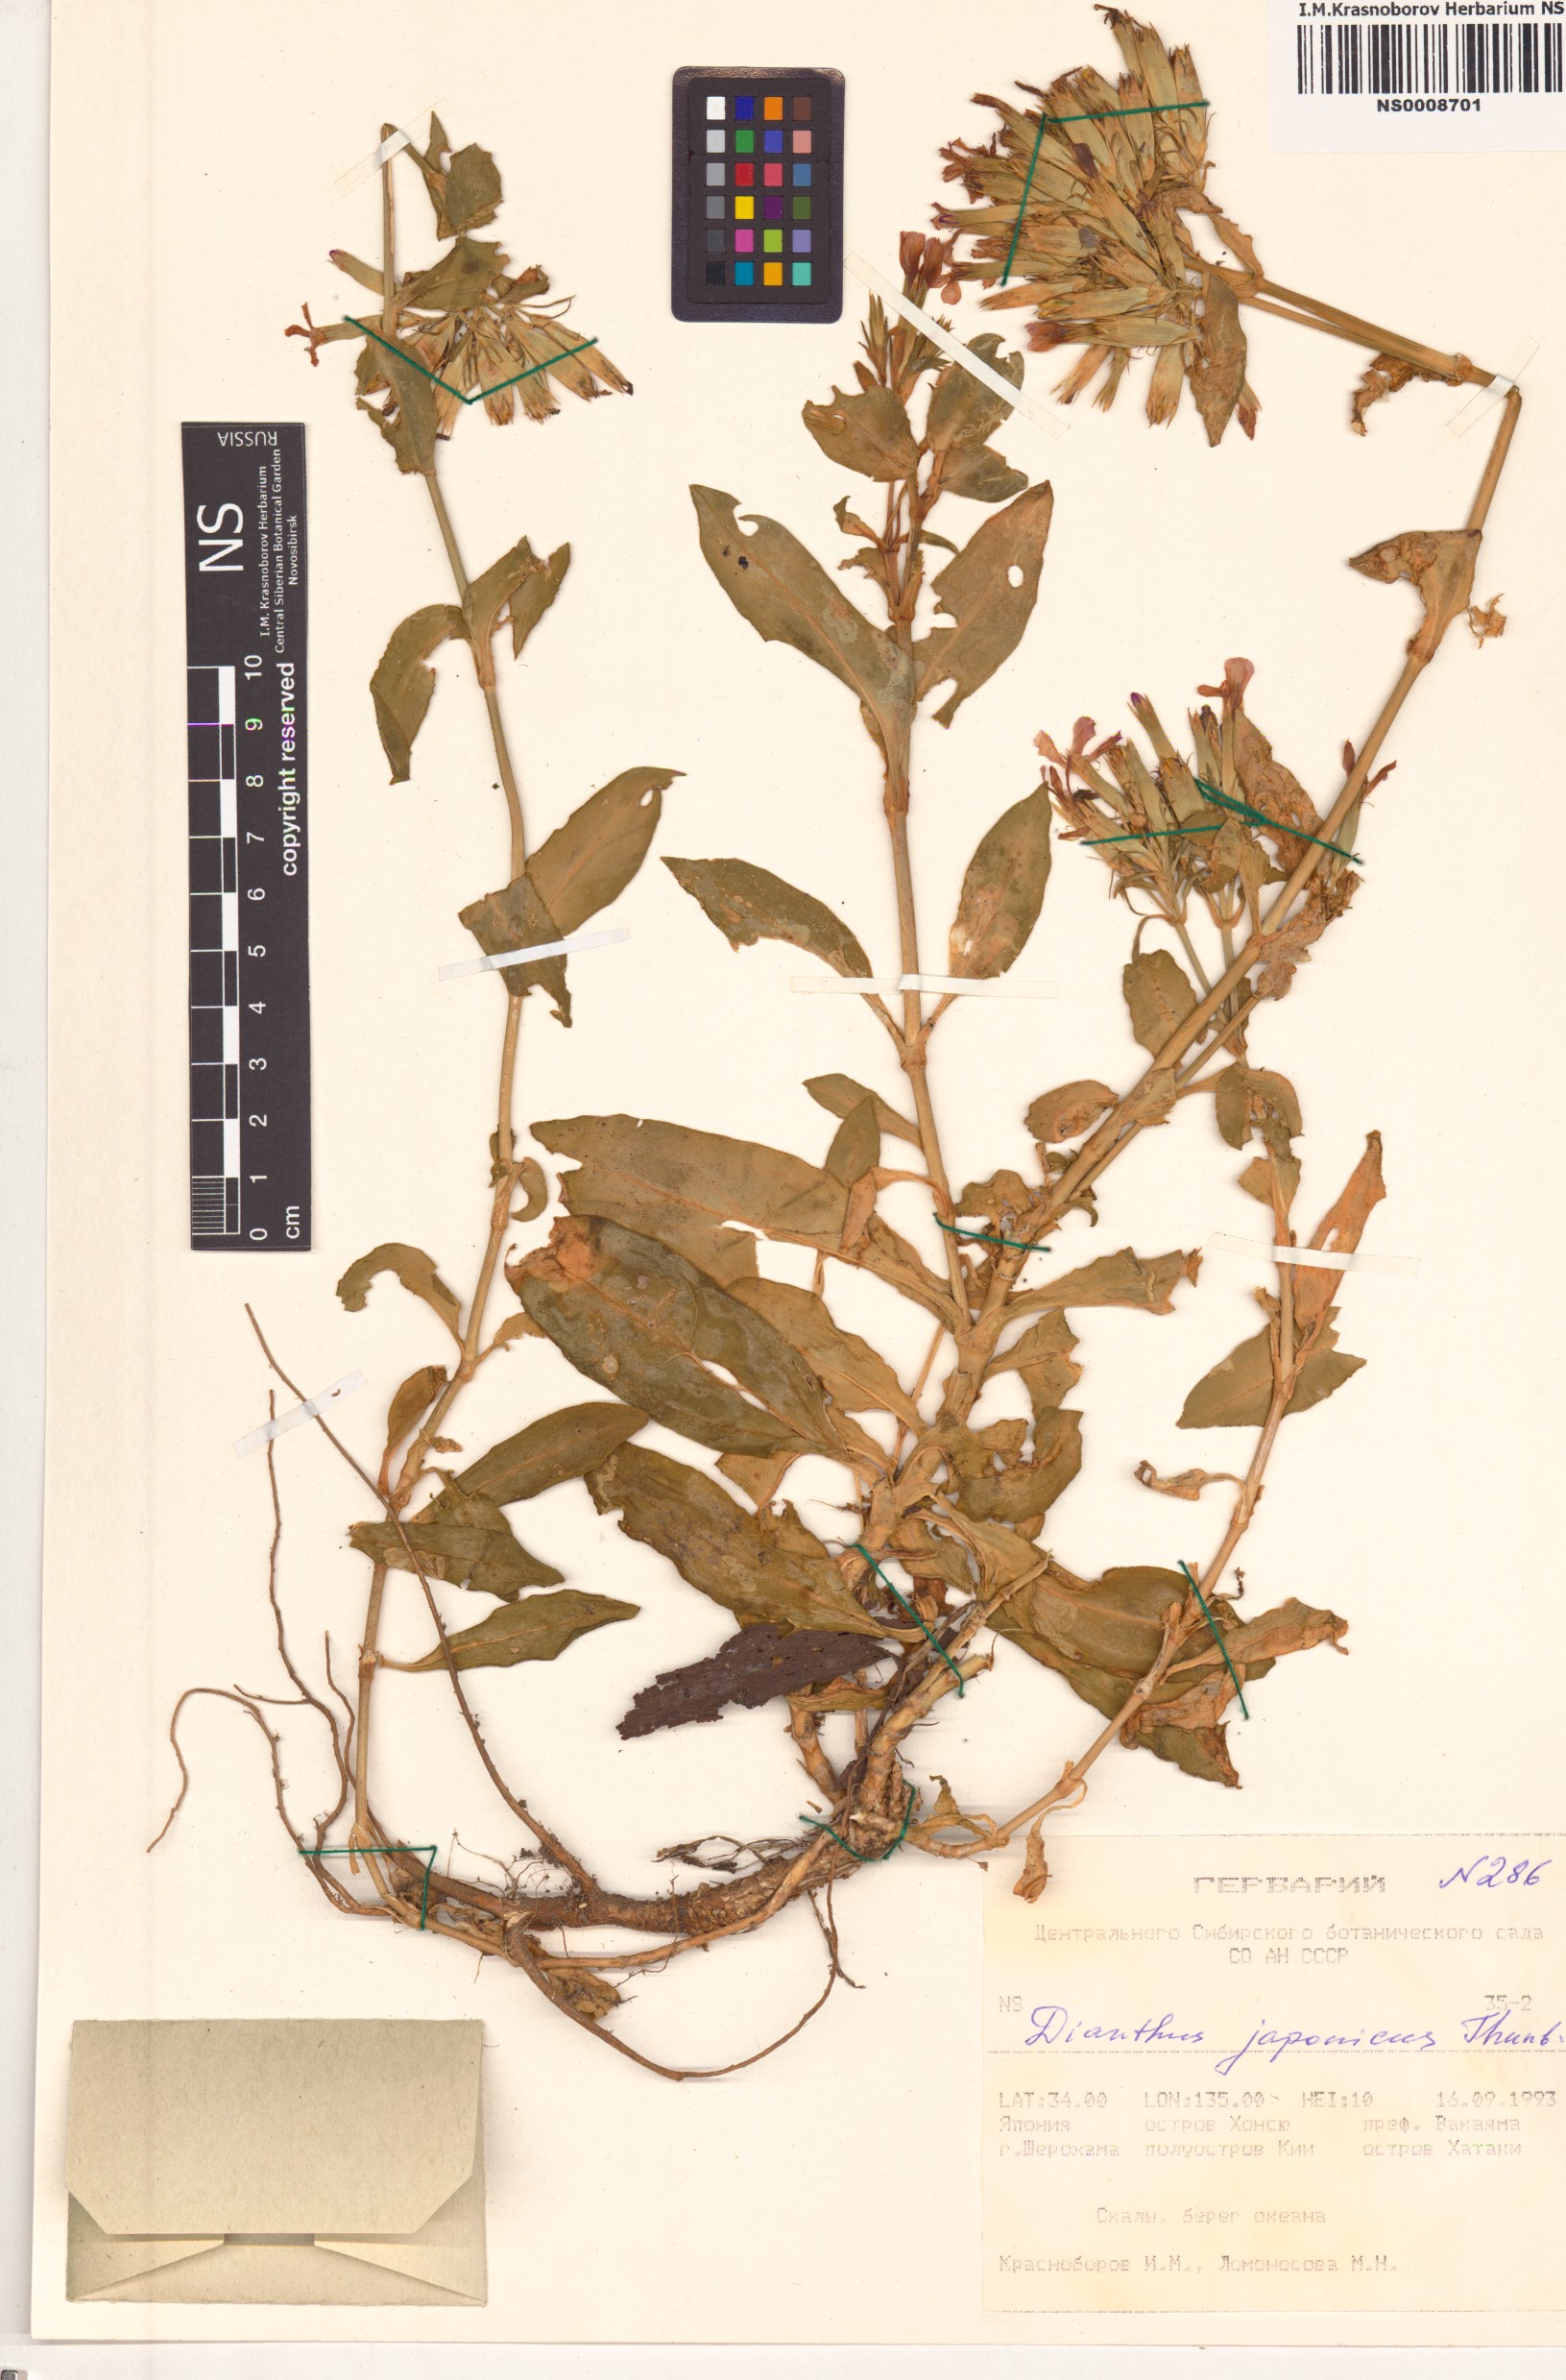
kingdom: Plantae
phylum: Tracheophyta
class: Magnoliopsida
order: Caryophyllales
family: Caryophyllaceae
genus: Dianthus
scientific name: Dianthus japonicus
